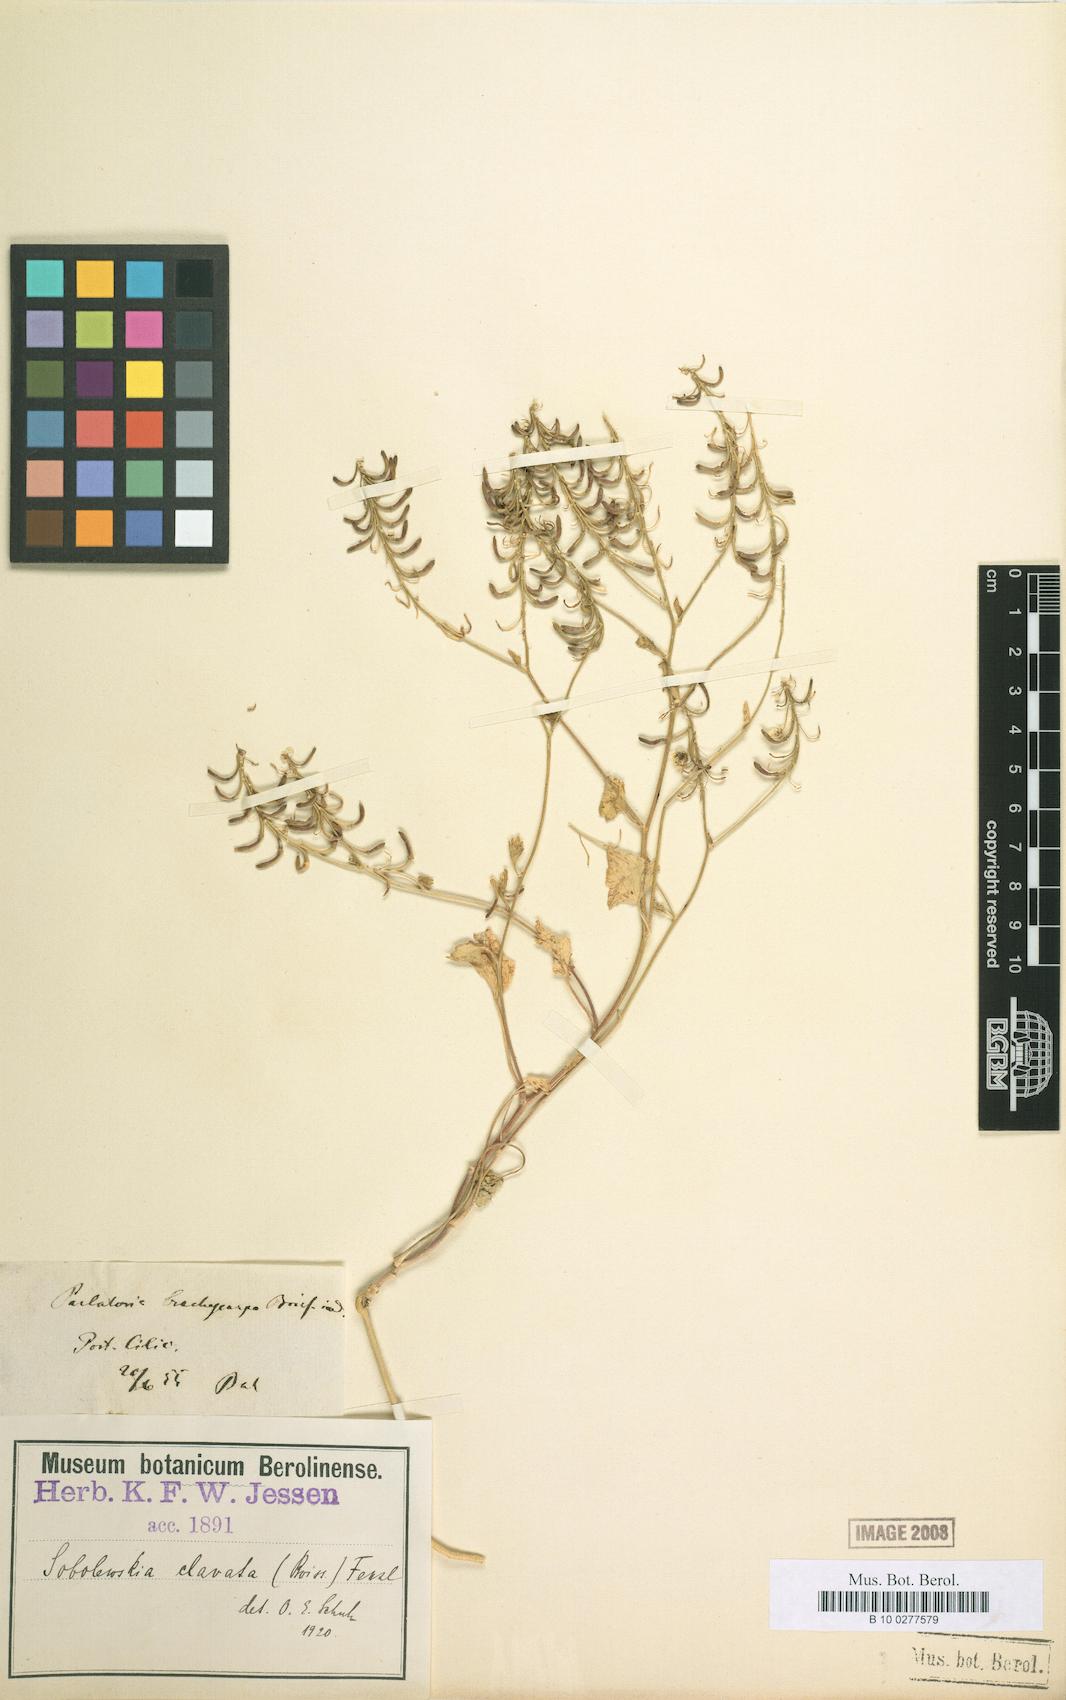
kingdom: Plantae
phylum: Tracheophyta
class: Magnoliopsida
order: Brassicales
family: Brassicaceae
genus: Sobolewskia
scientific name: Sobolewskia clavata
